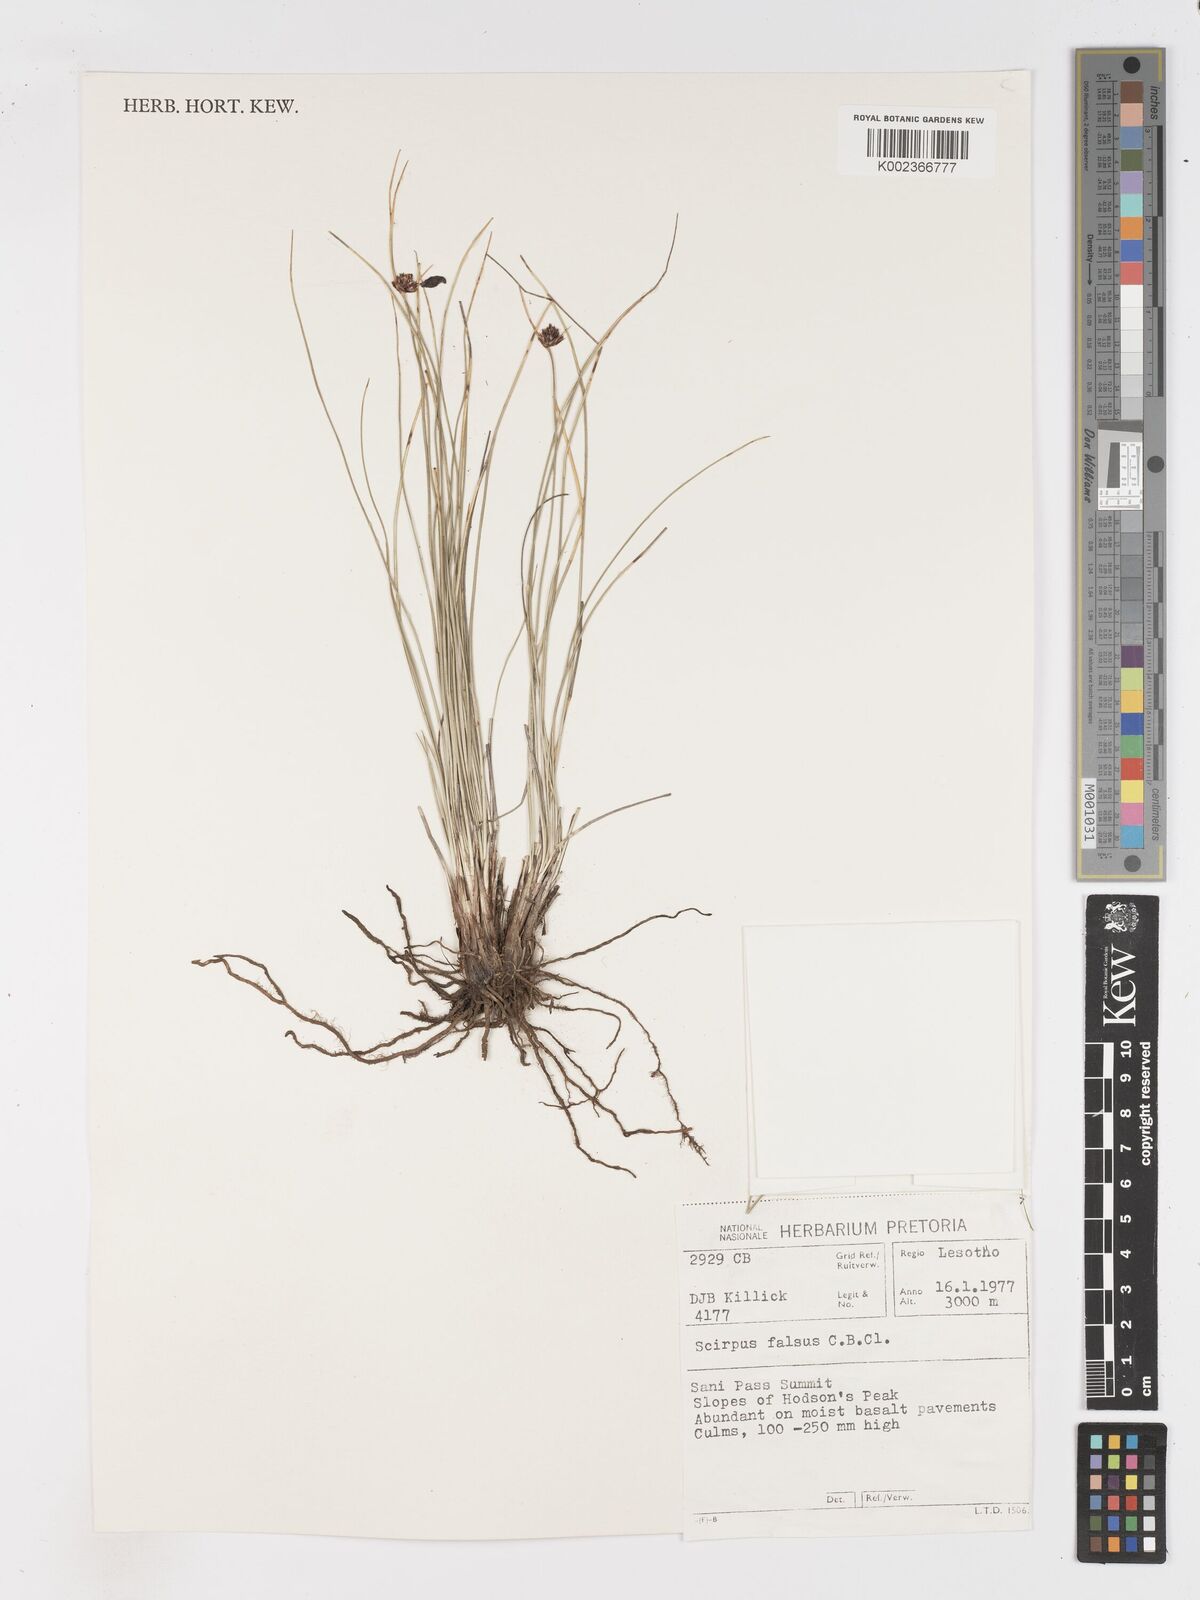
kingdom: Plantae
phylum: Tracheophyta
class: Liliopsida
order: Poales
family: Cyperaceae
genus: Dracoscirpoides
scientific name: Dracoscirpoides falsa
